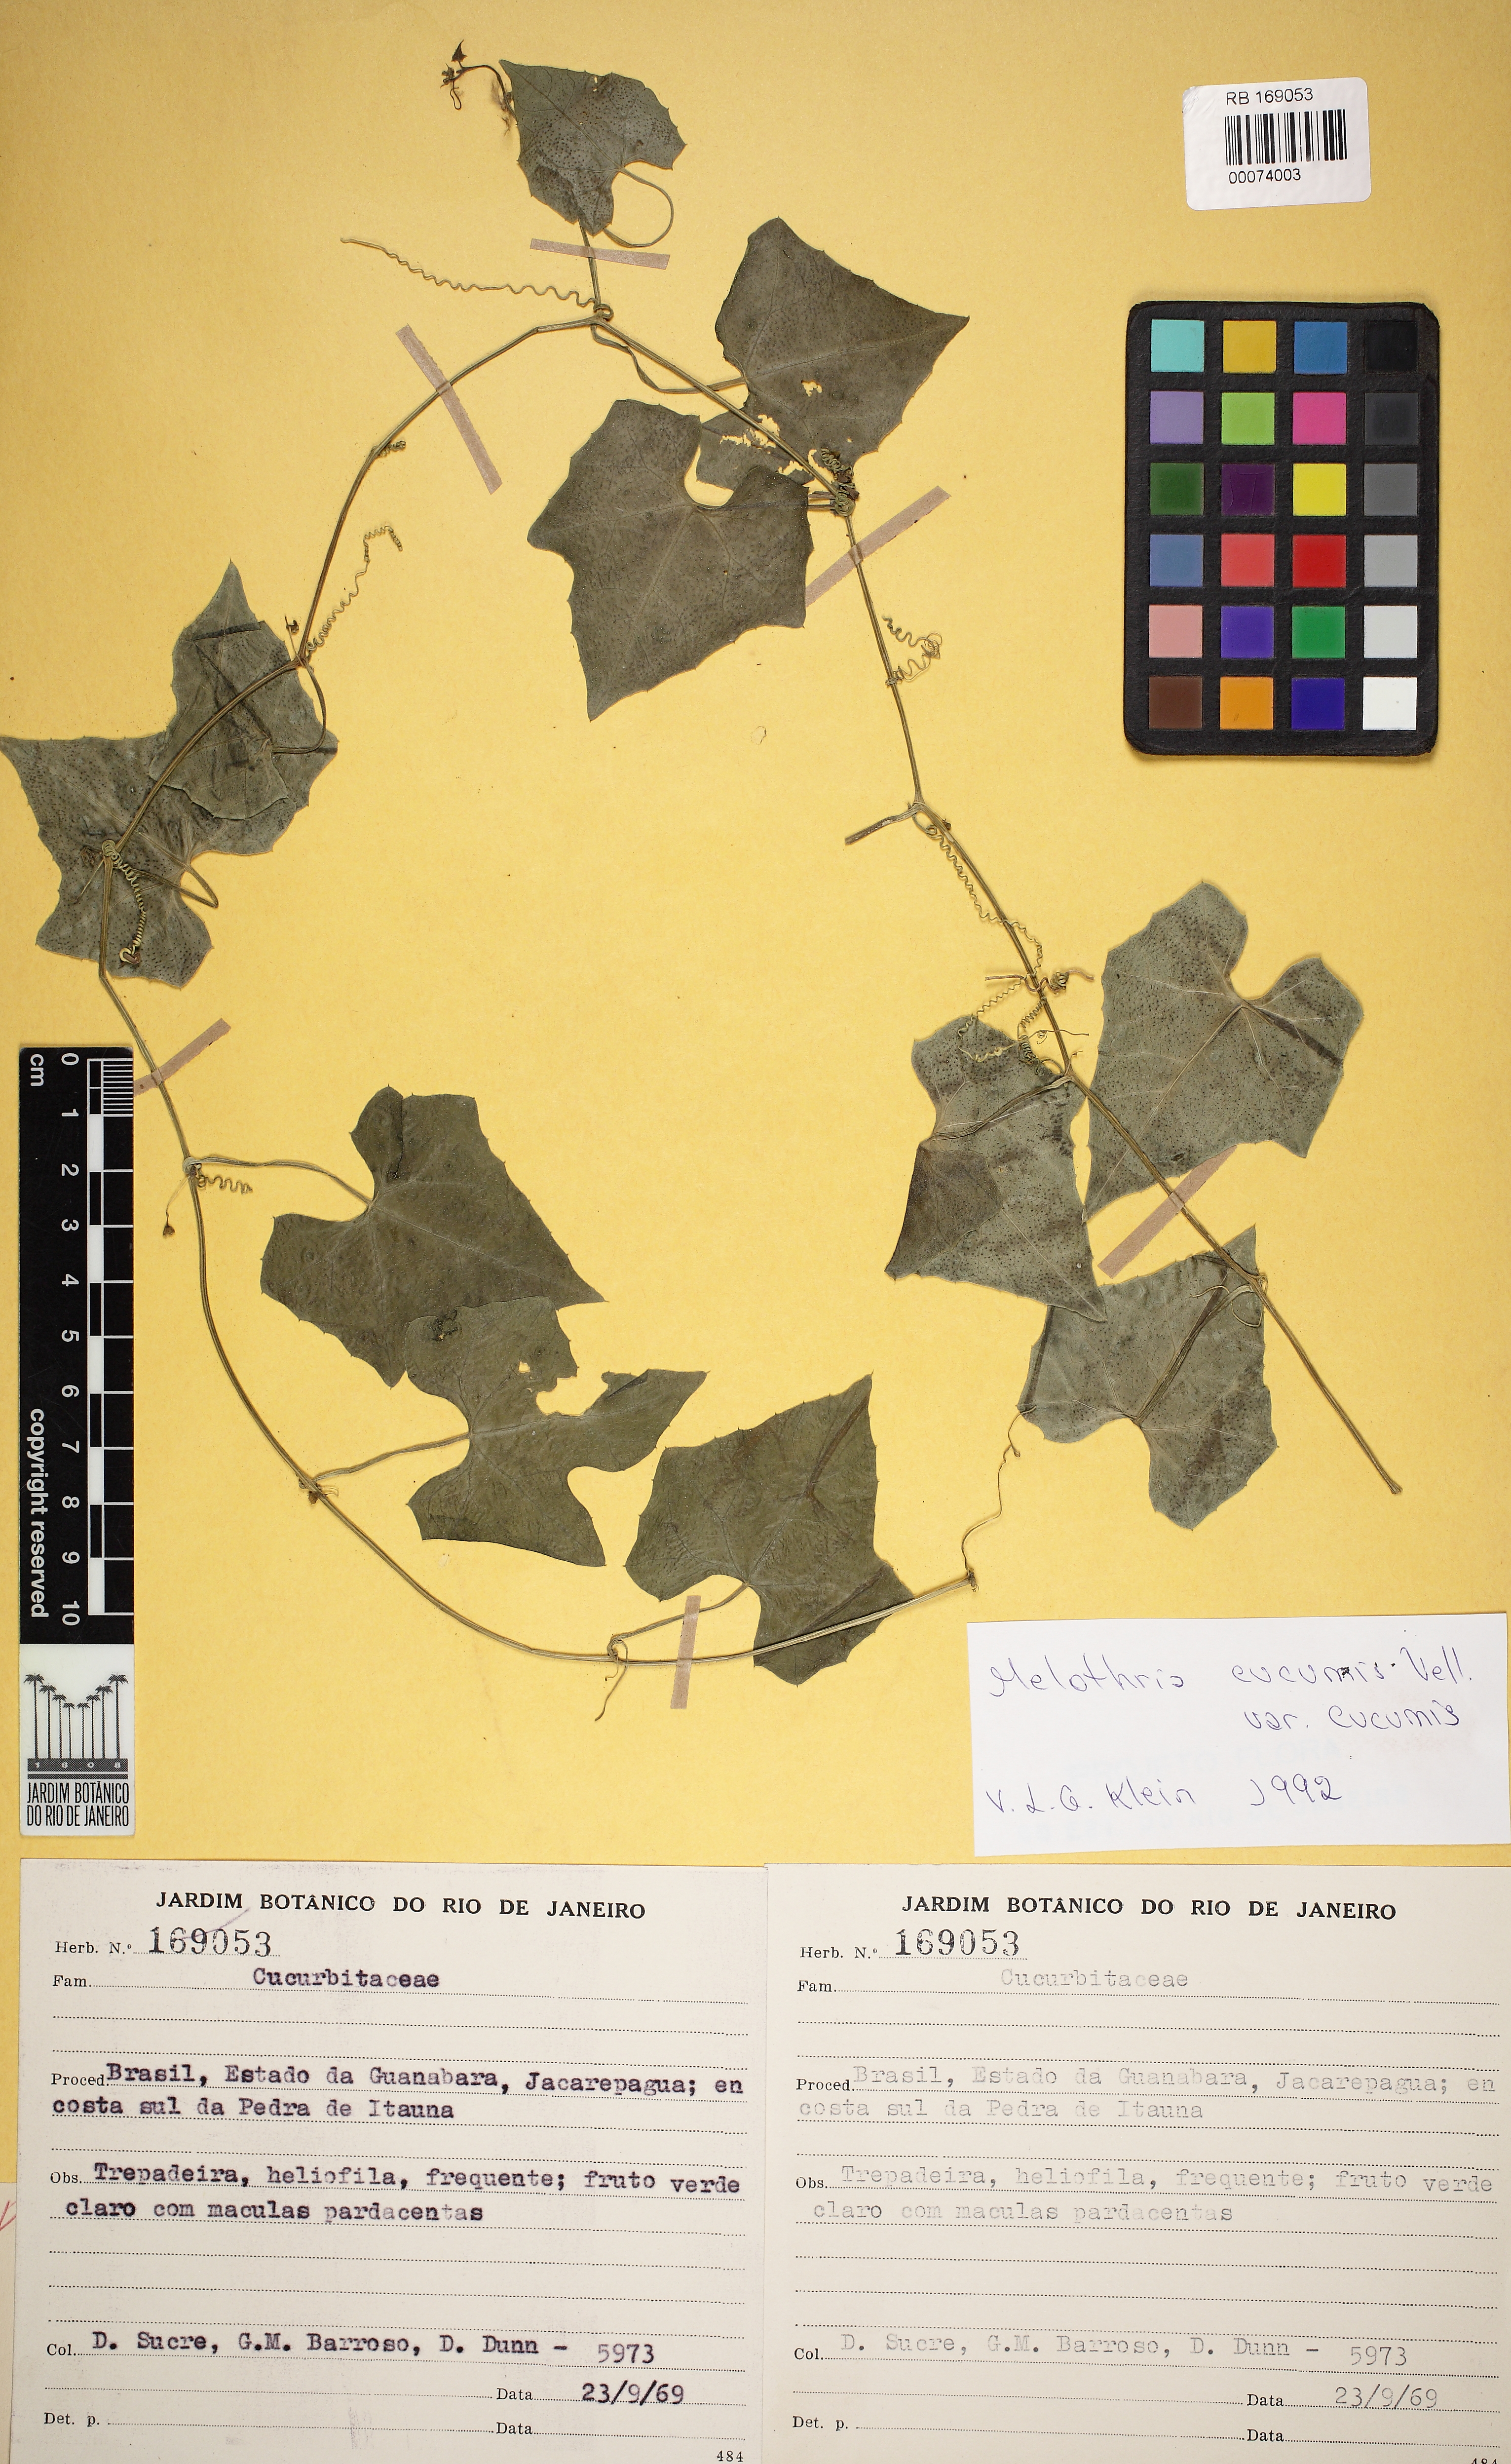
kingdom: Plantae
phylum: Tracheophyta
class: Magnoliopsida
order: Cucurbitales
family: Cucurbitaceae
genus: Melothria
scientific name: Melothria cucumis
